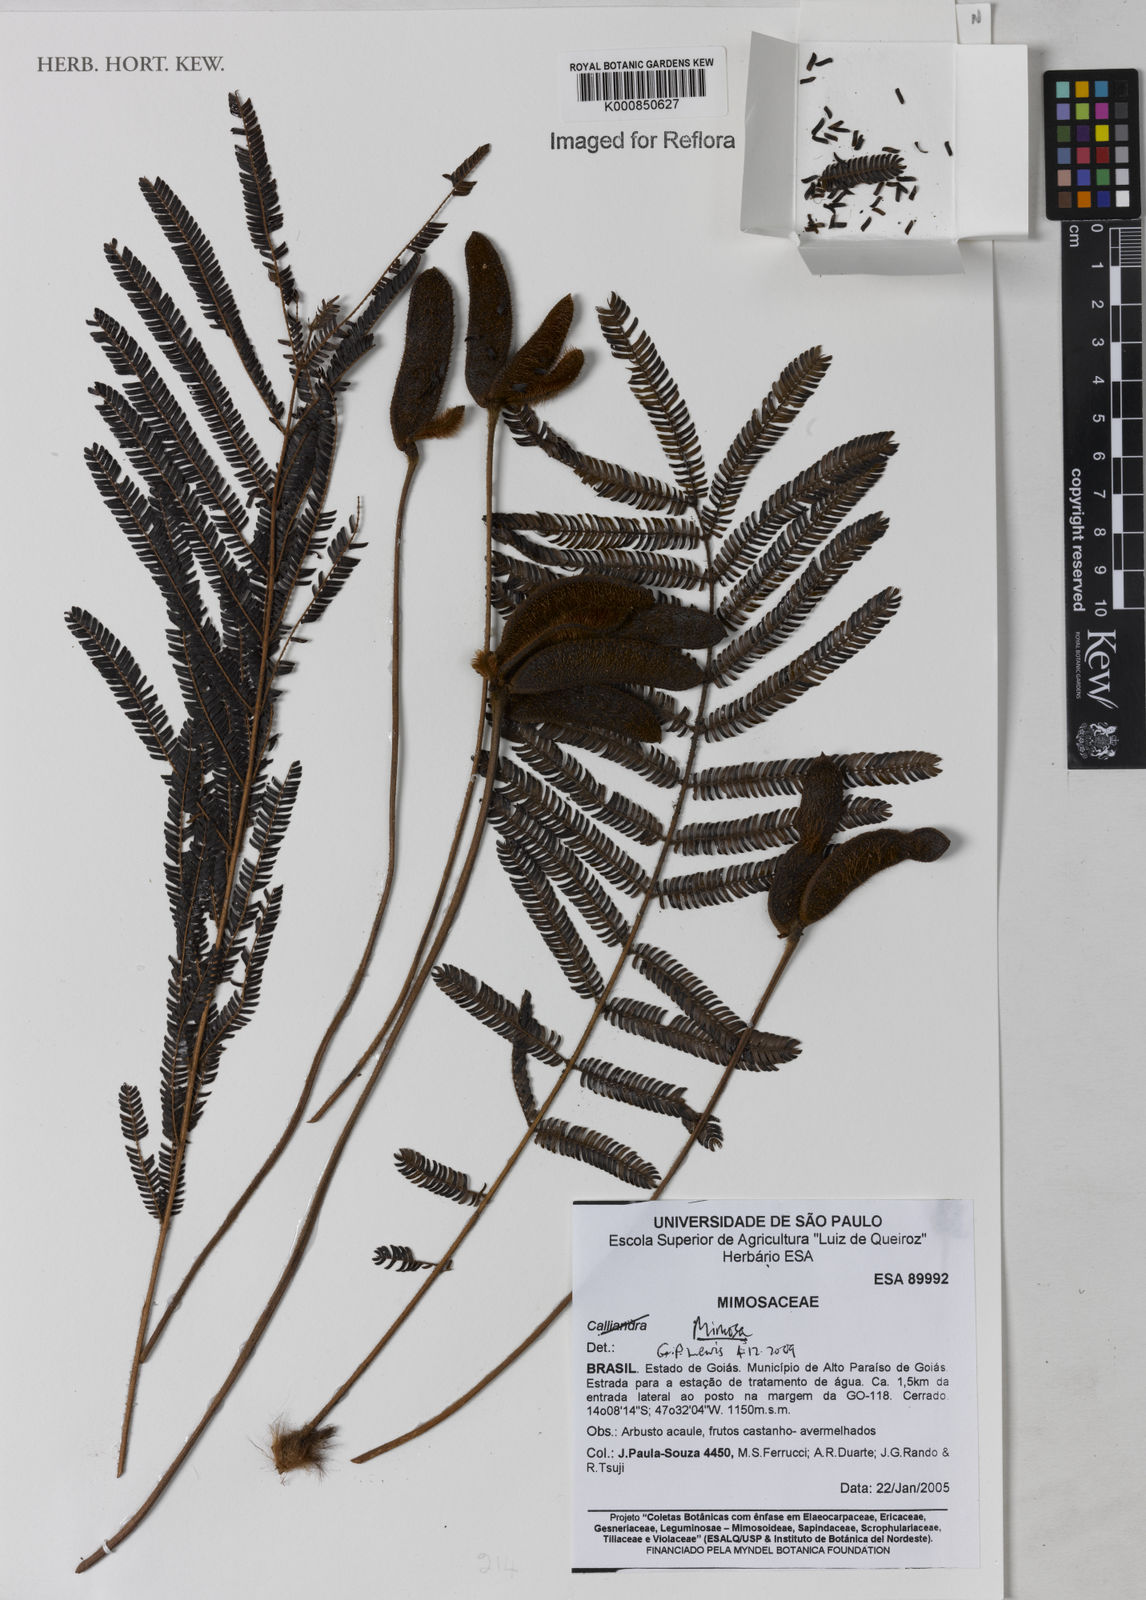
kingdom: Plantae
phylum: Tracheophyta
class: Magnoliopsida
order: Fabales
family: Fabaceae
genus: Mimosa
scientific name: Mimosa speciosissima
